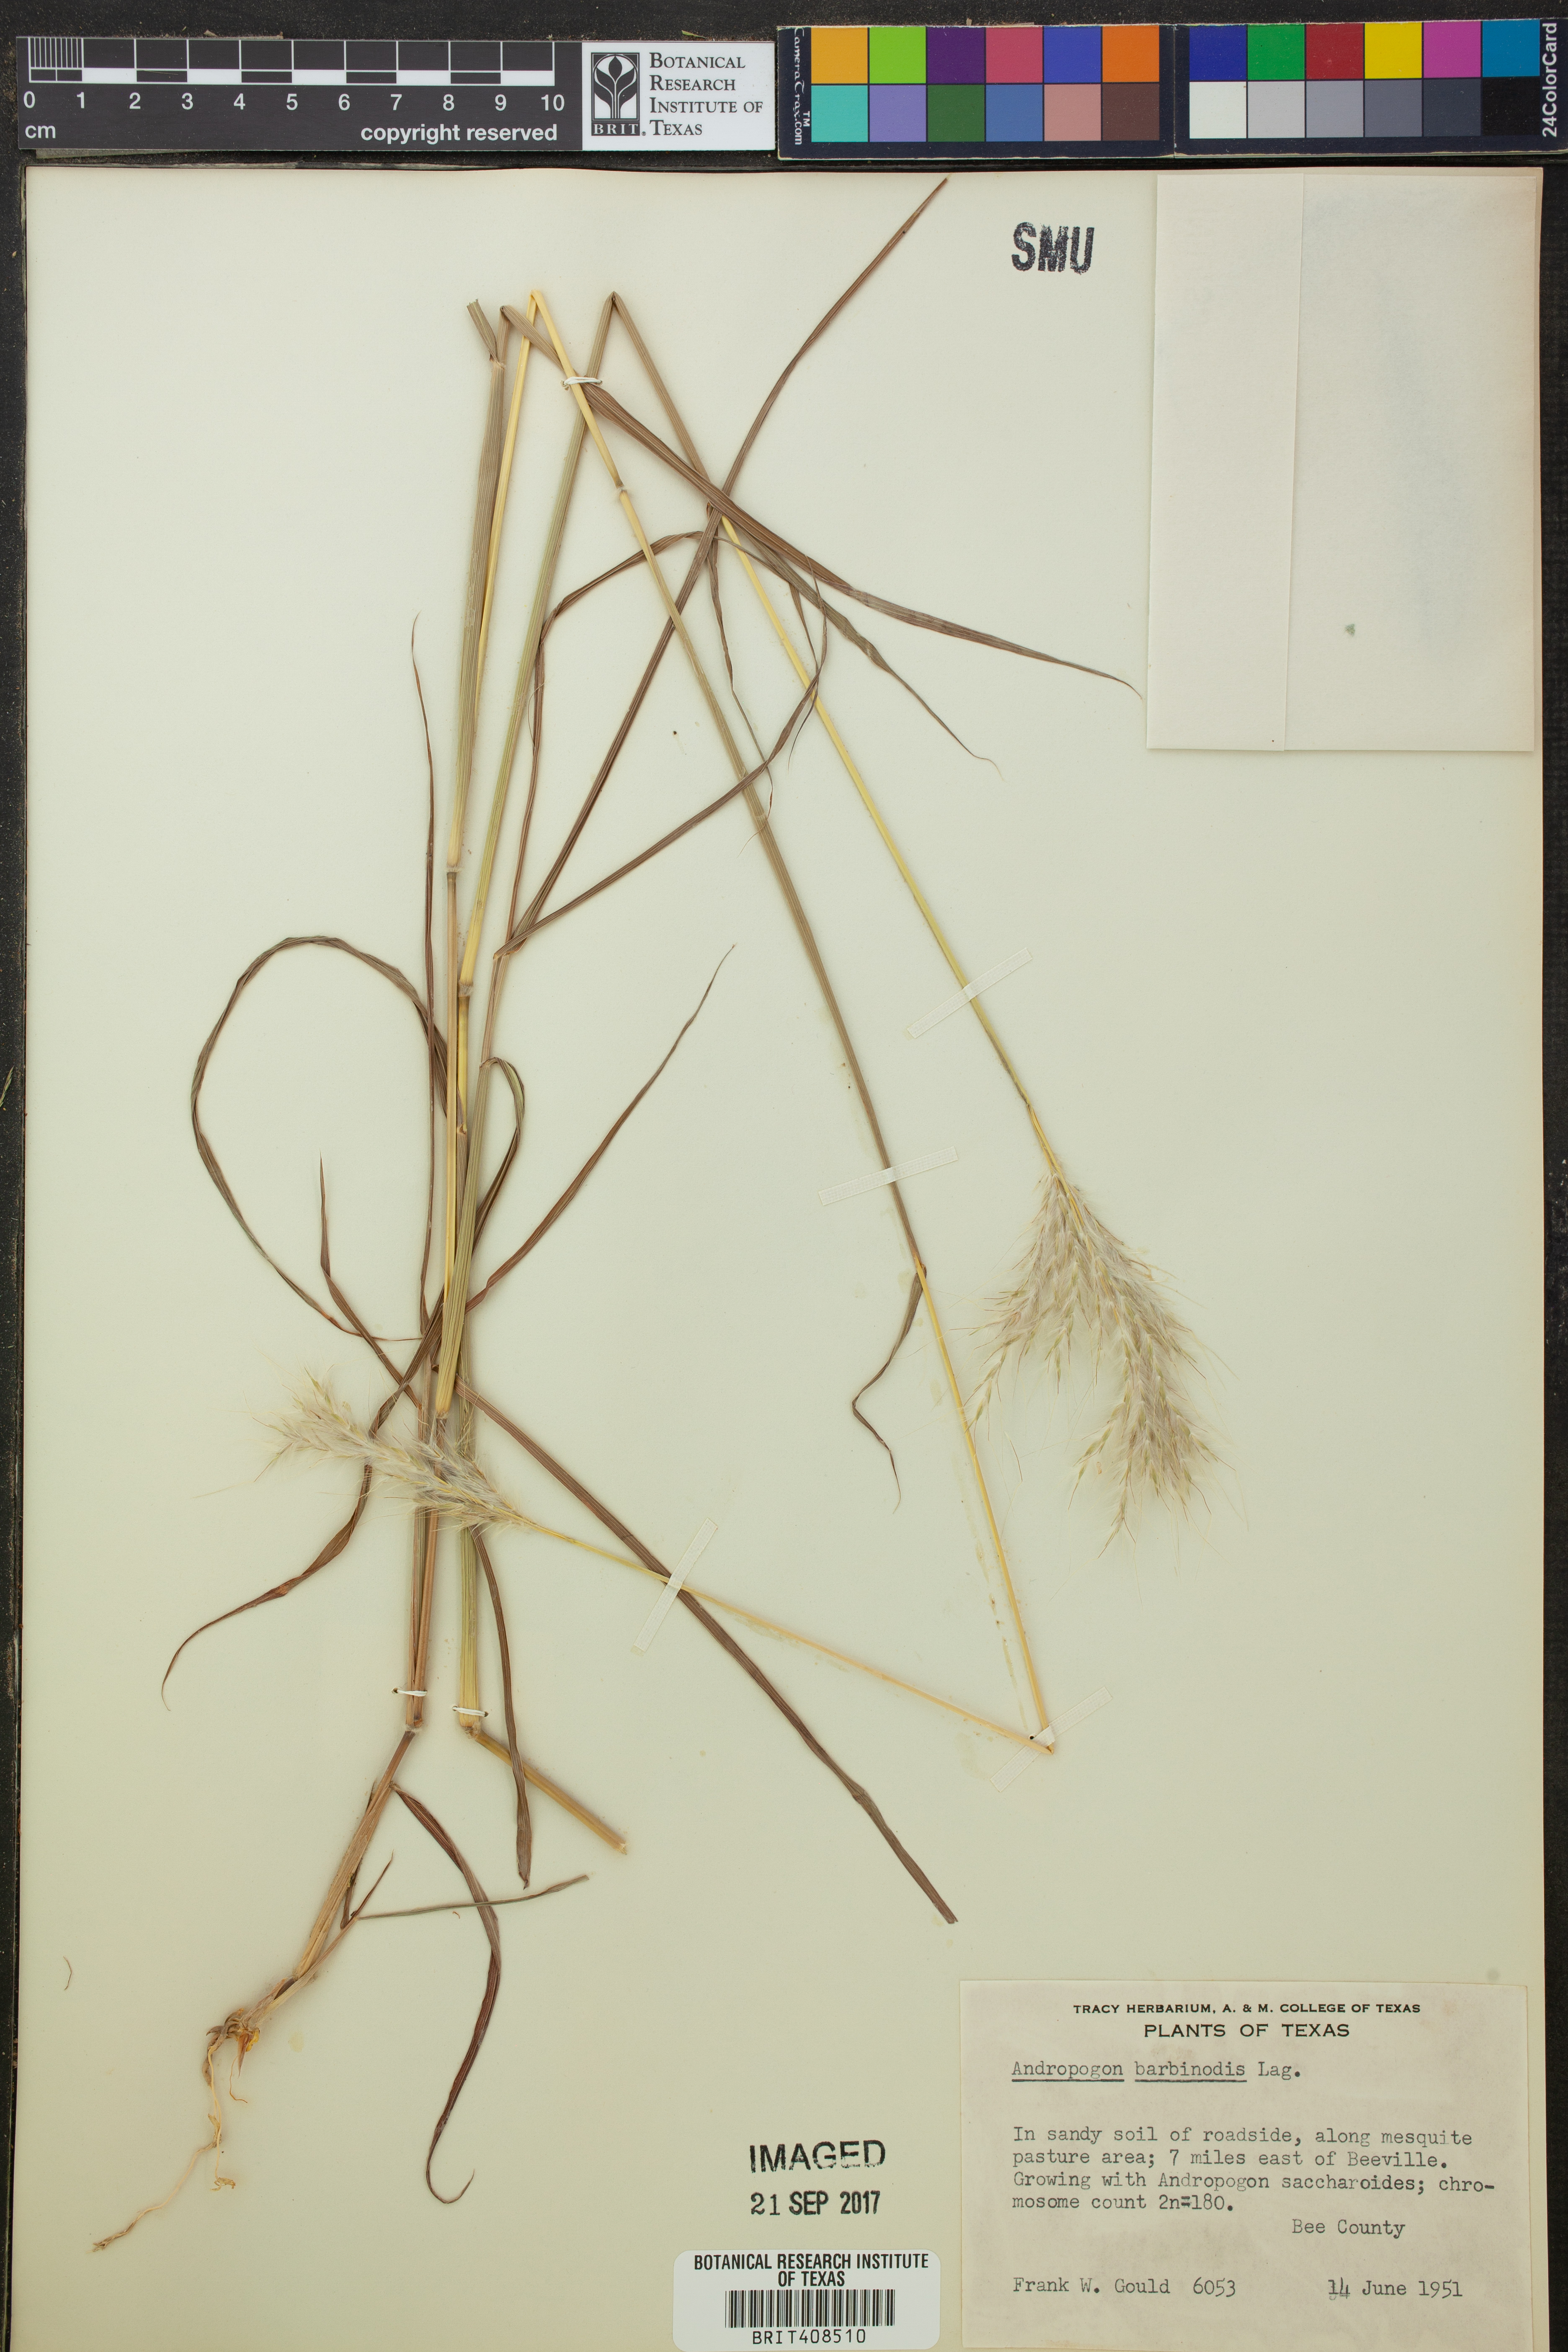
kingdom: Plantae
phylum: Tracheophyta
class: Liliopsida
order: Poales
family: Poaceae
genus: Bothriochloa
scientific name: Bothriochloa barbinodis
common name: Cane bluestem
